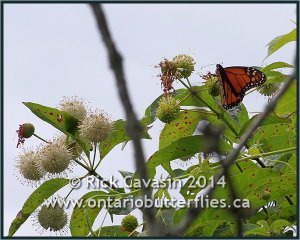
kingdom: Animalia
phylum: Arthropoda
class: Insecta
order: Lepidoptera
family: Nymphalidae
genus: Danaus
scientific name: Danaus plexippus
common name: Monarch
